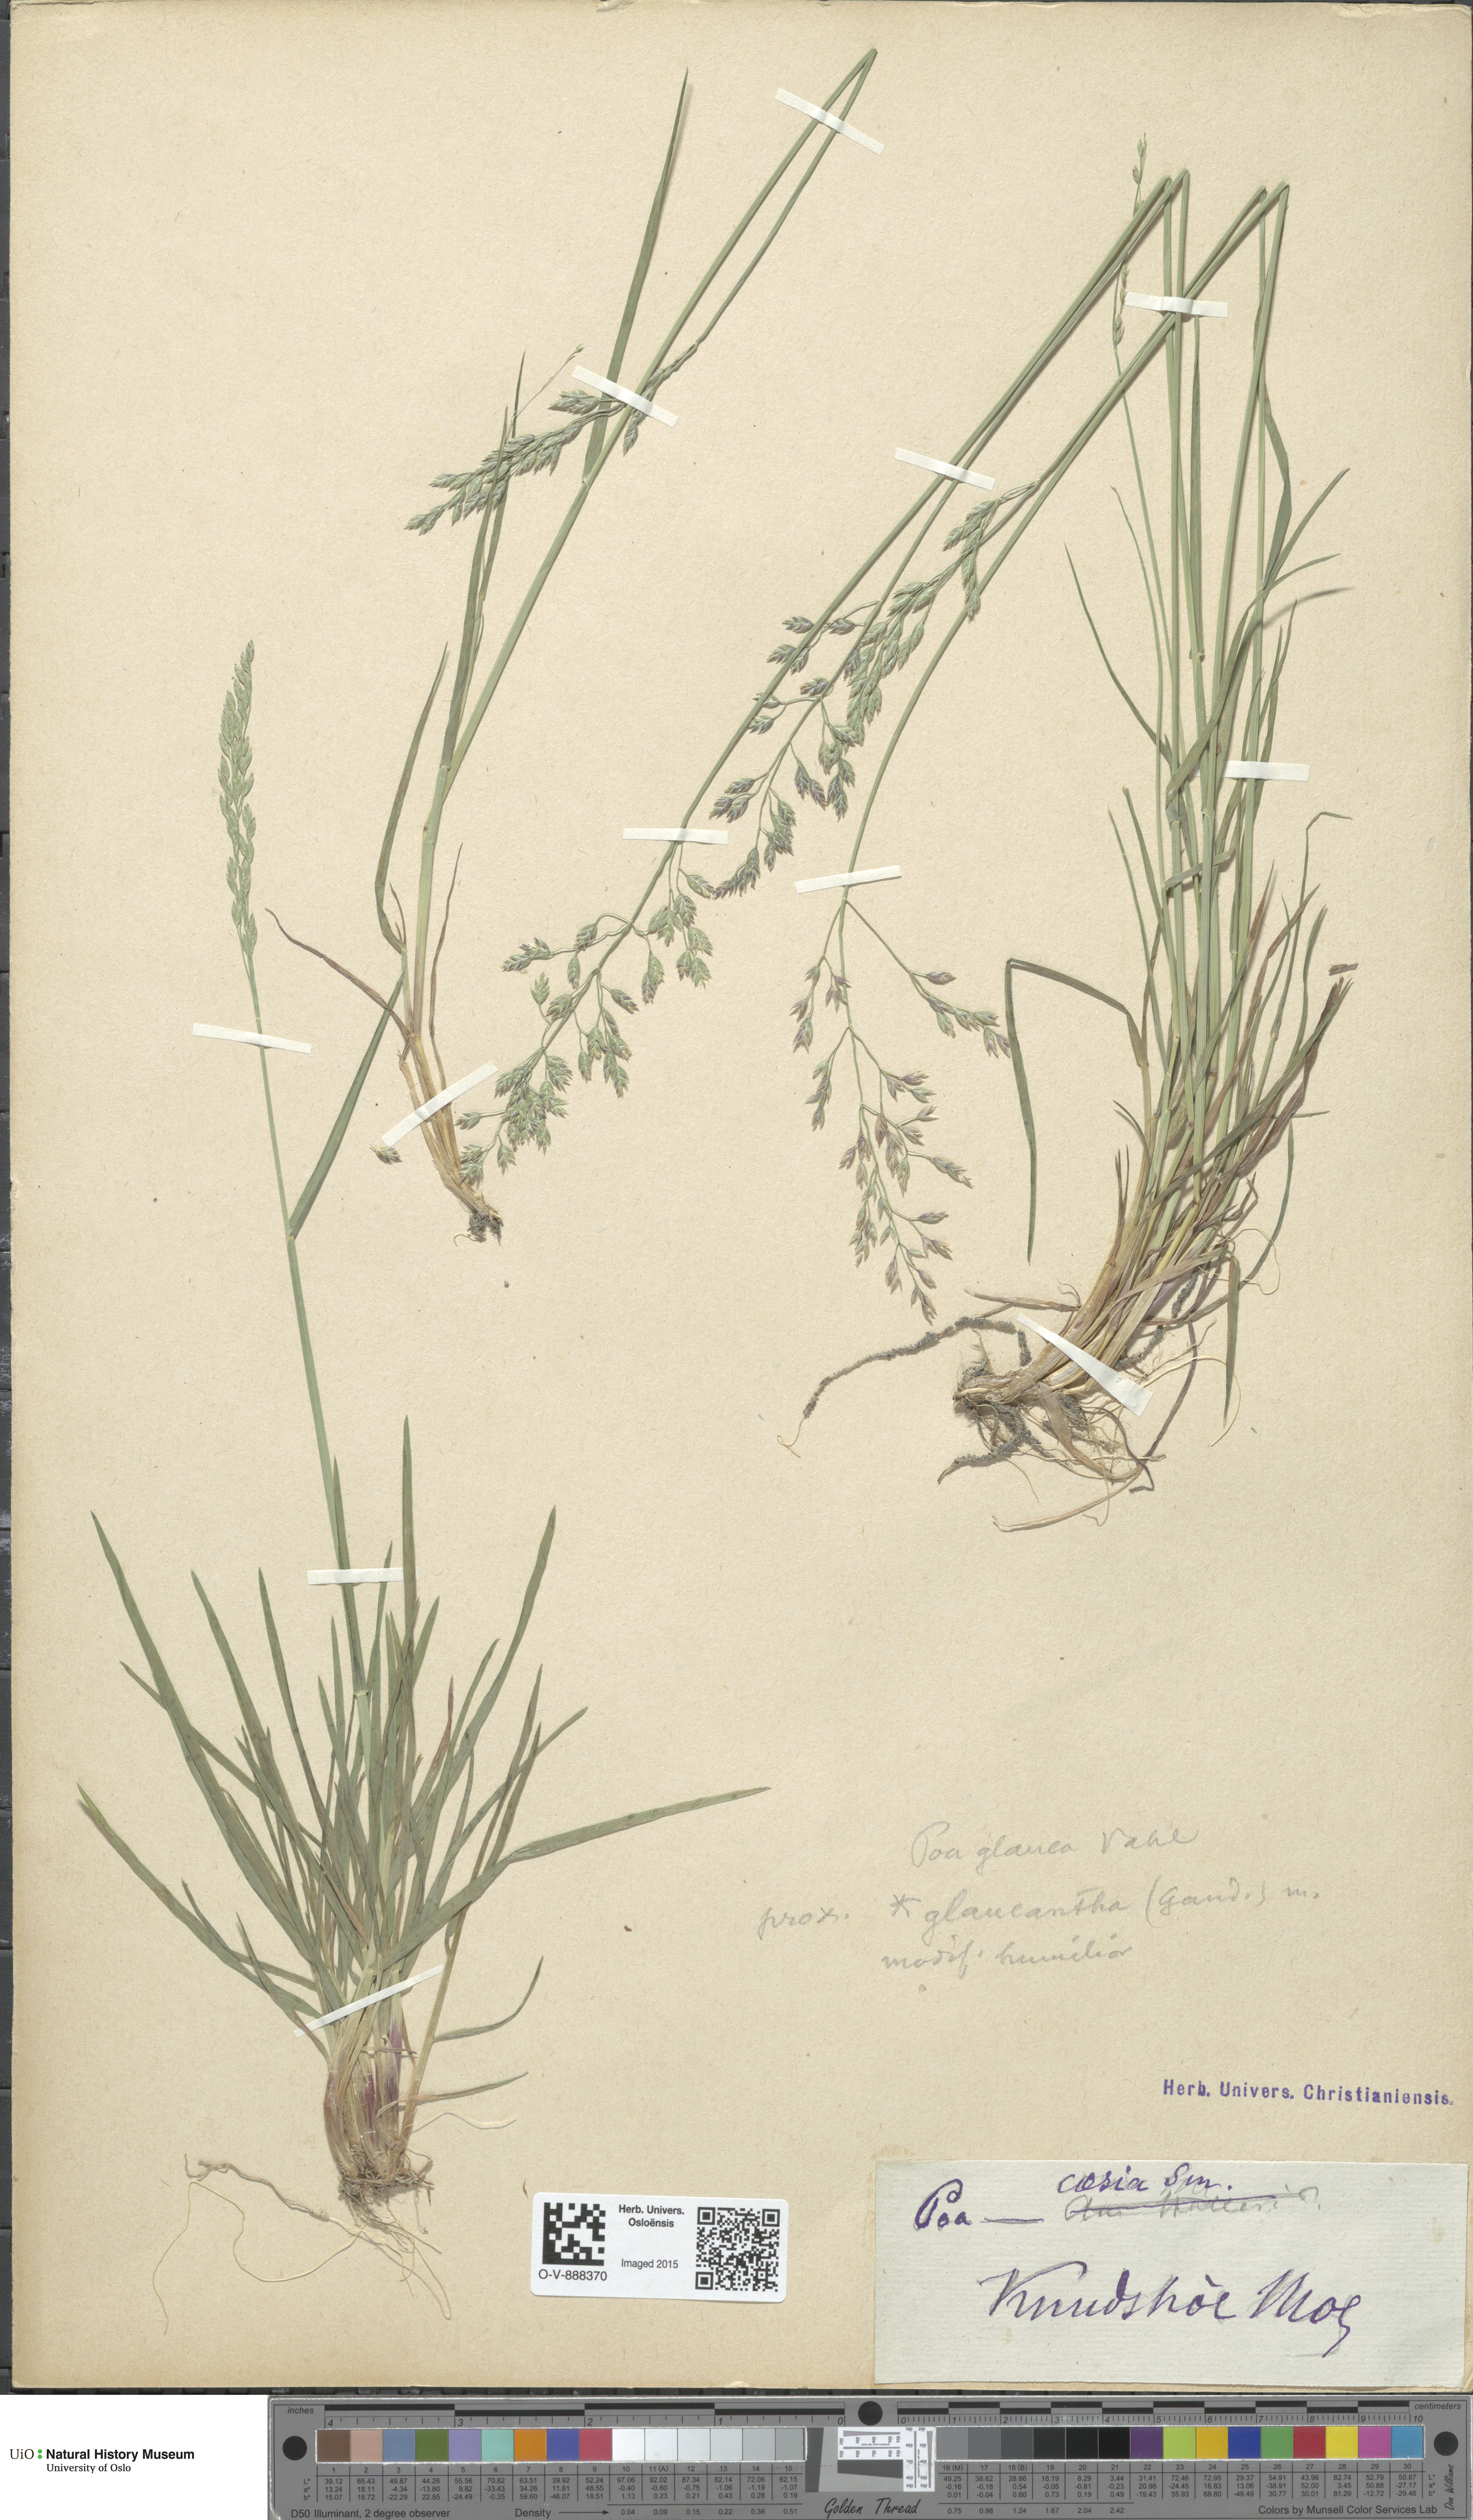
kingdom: Plantae
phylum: Tracheophyta
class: Liliopsida
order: Poales
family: Poaceae
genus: Poa
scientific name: Poa nemoralis
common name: Wood bluegrass
